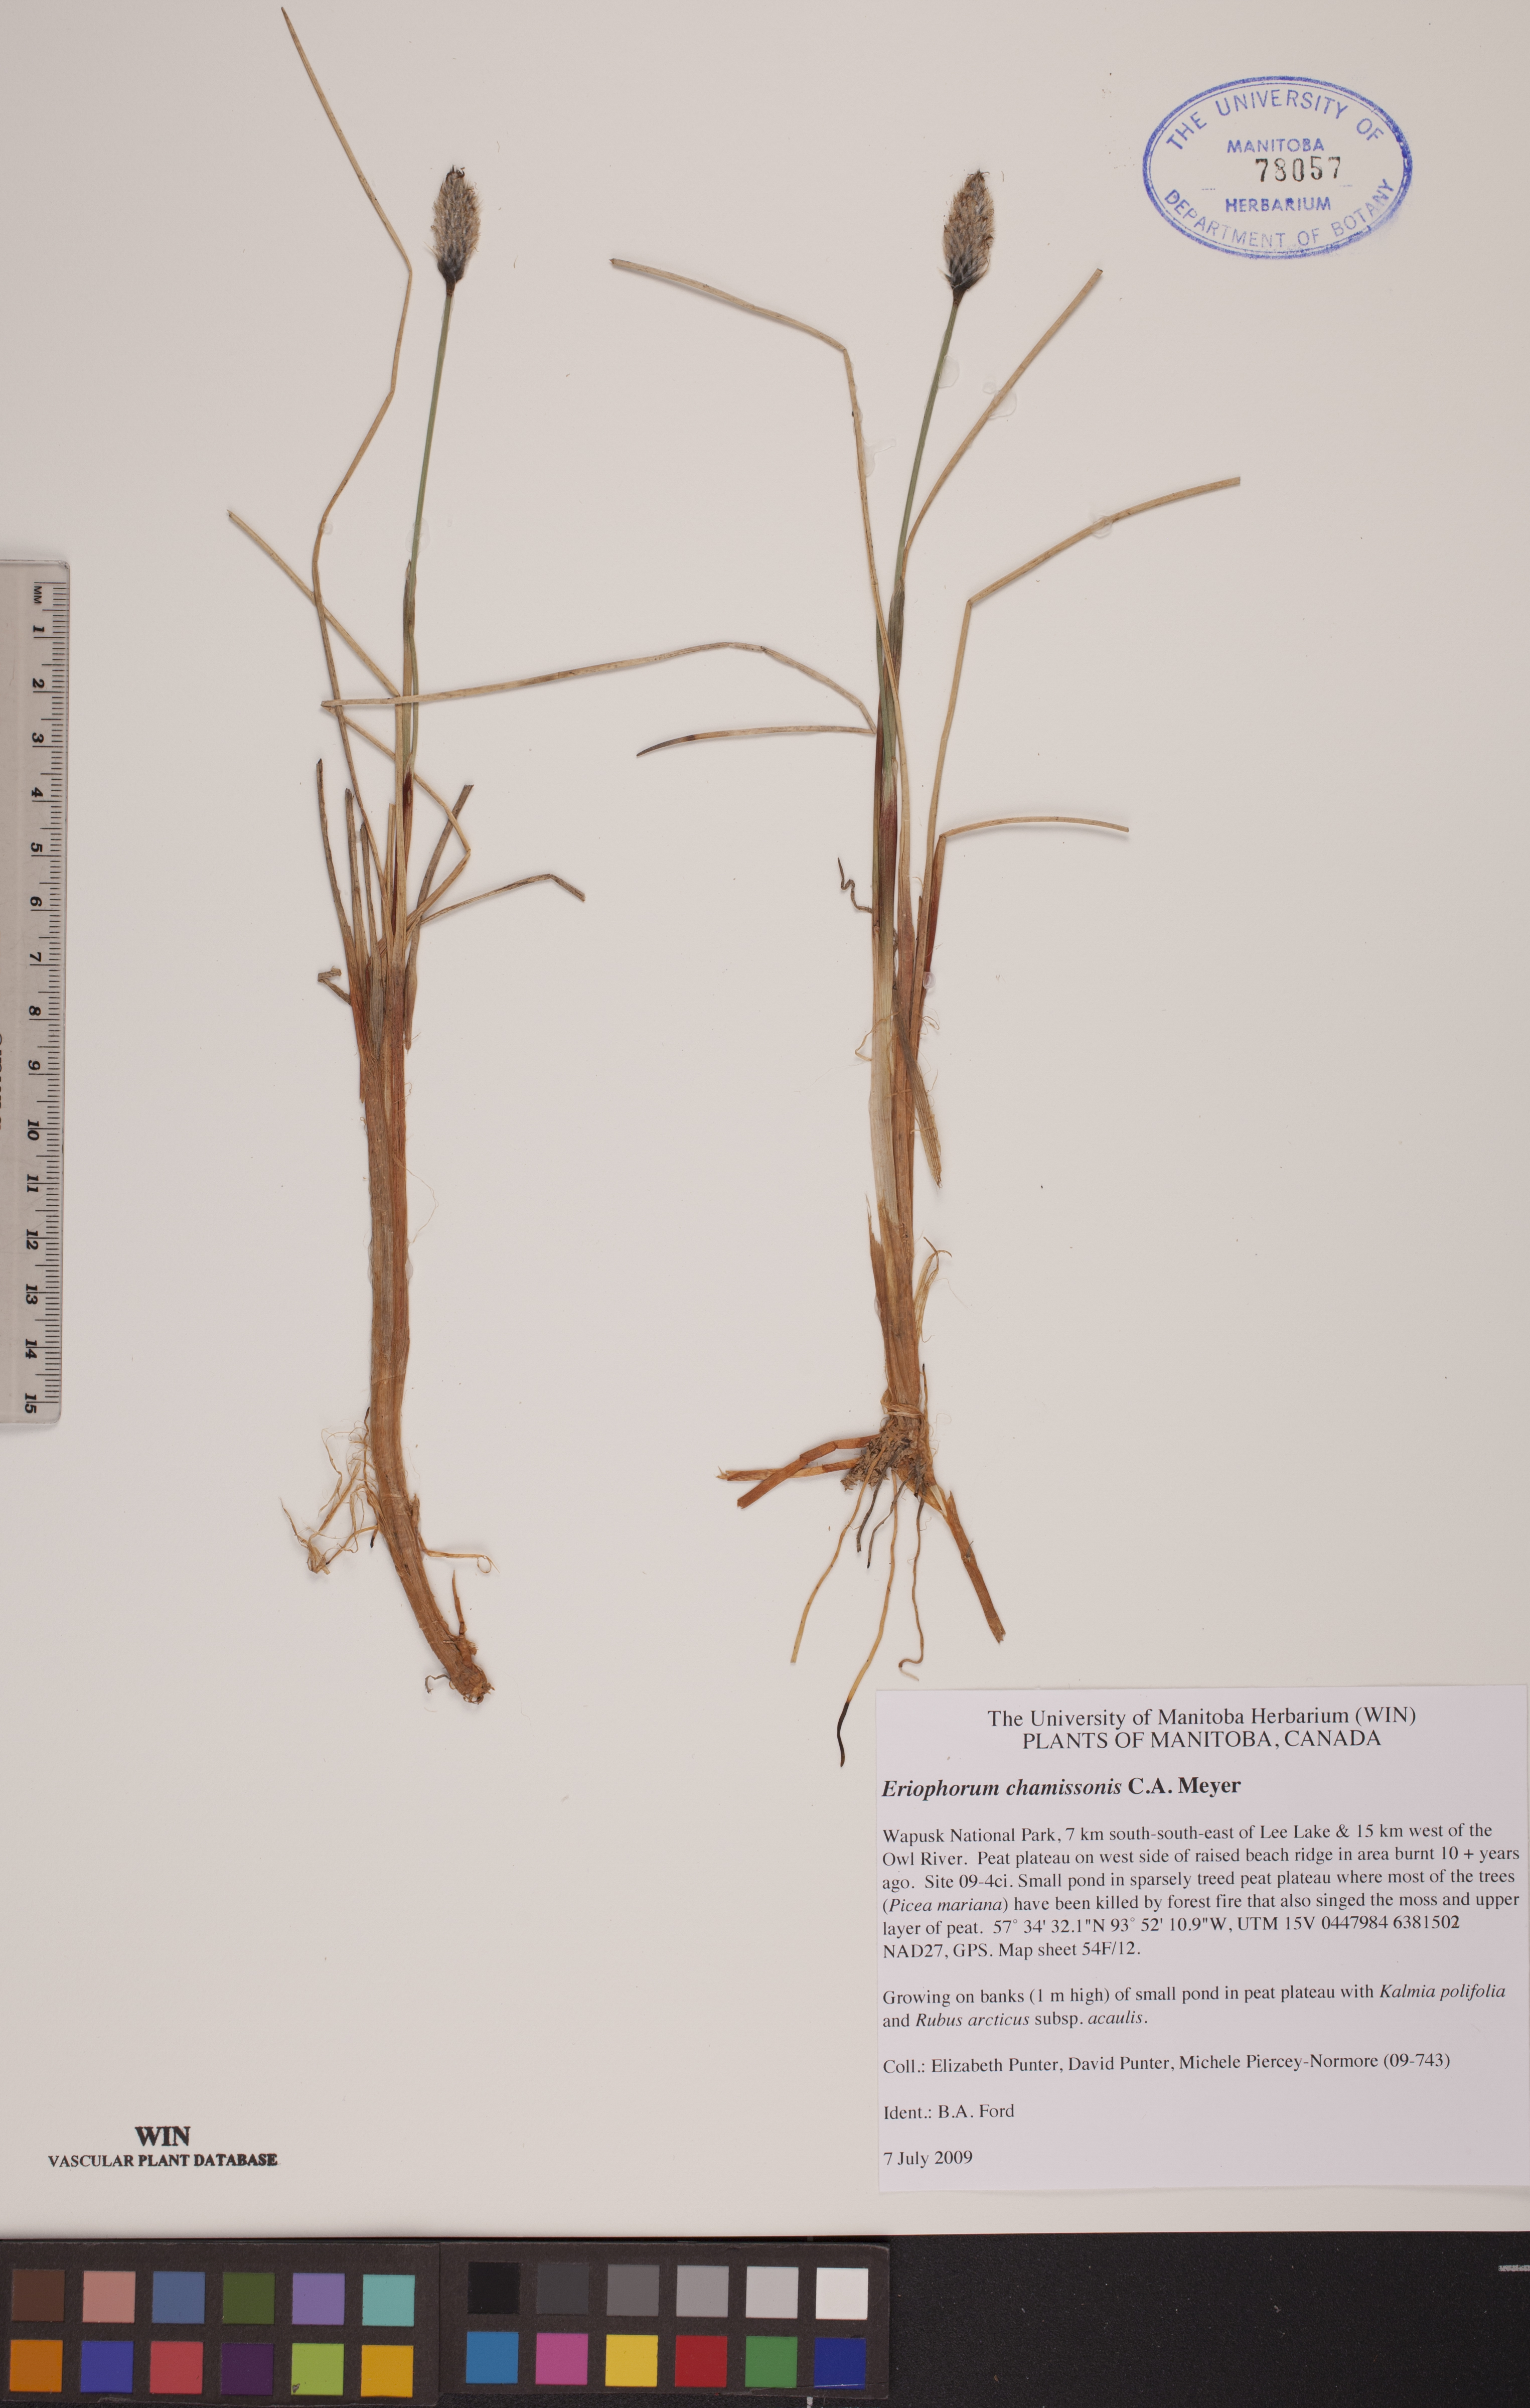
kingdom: Plantae
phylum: Tracheophyta
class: Liliopsida
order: Poales
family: Cyperaceae
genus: Eriophorum
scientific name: Eriophorum chamissonis
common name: Chamisso's cottongrass
